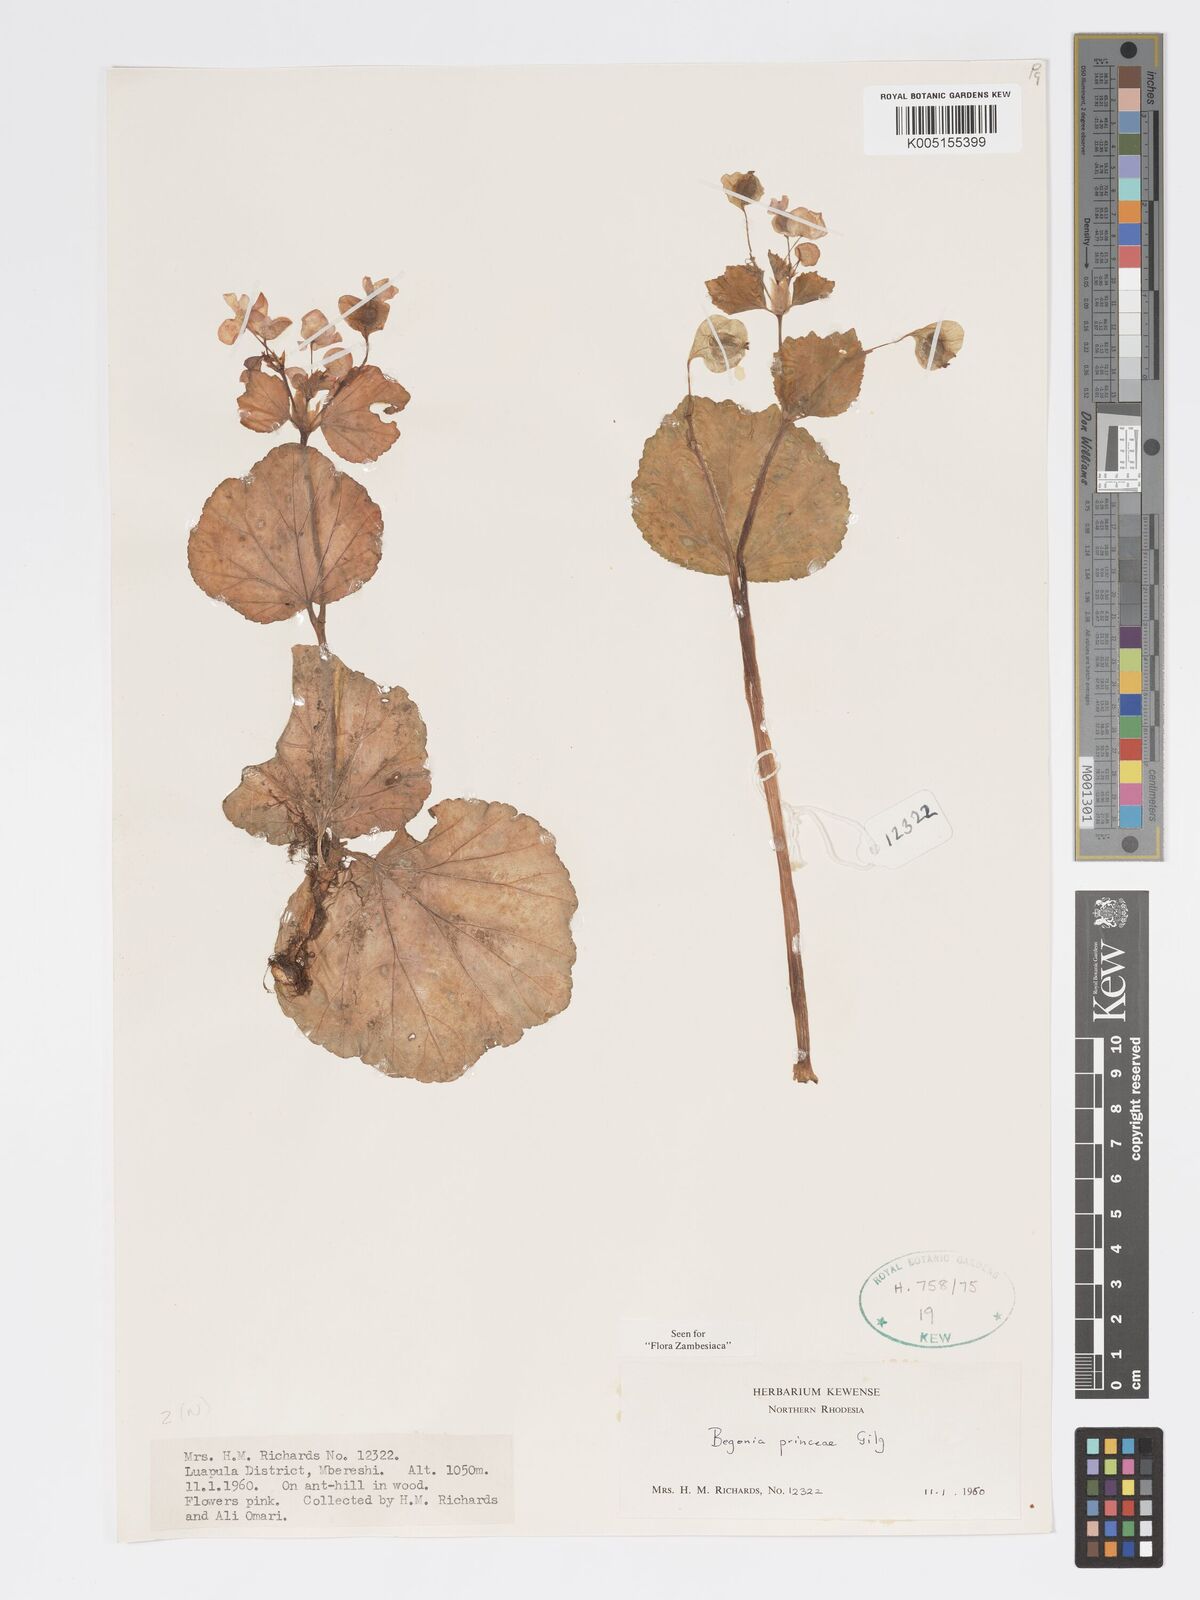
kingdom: Plantae
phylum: Tracheophyta
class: Magnoliopsida
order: Cucurbitales
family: Begoniaceae
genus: Begonia
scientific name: Begonia princeae
